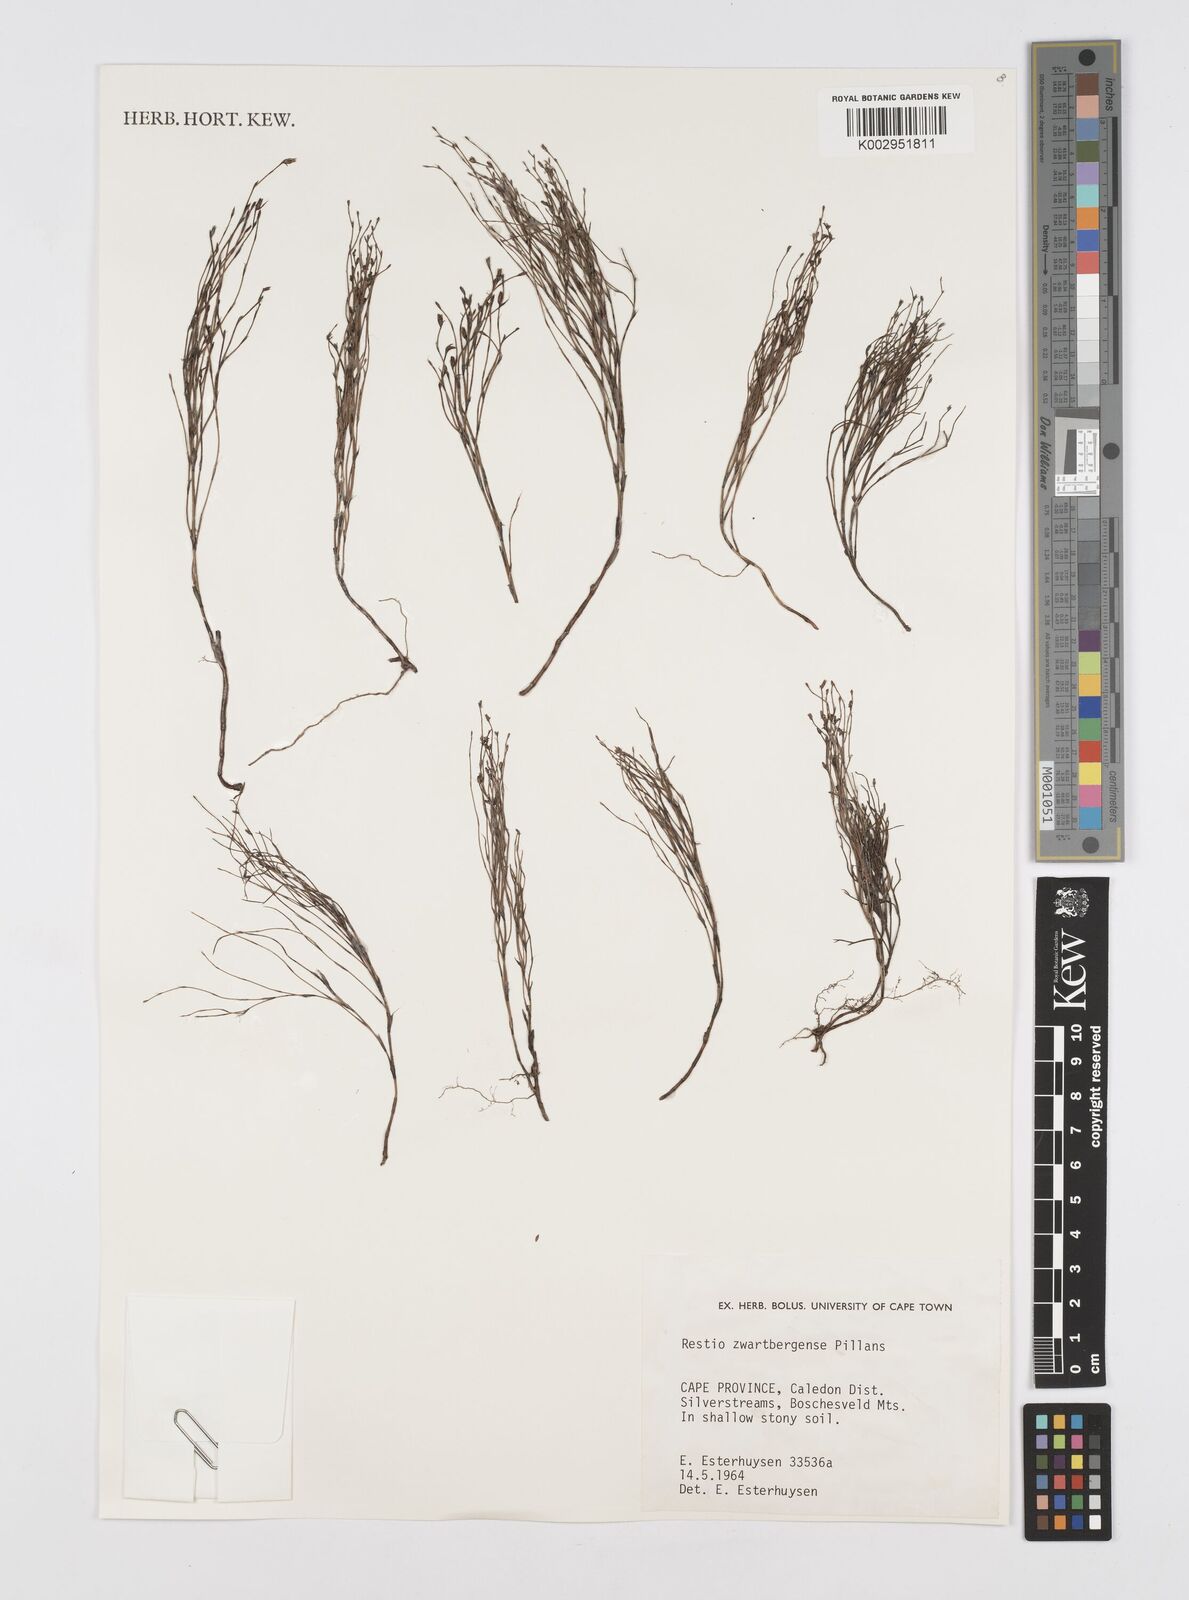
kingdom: Plantae
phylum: Tracheophyta
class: Liliopsida
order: Poales
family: Restionaceae
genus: Restio
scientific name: Restio zwartbergensis
